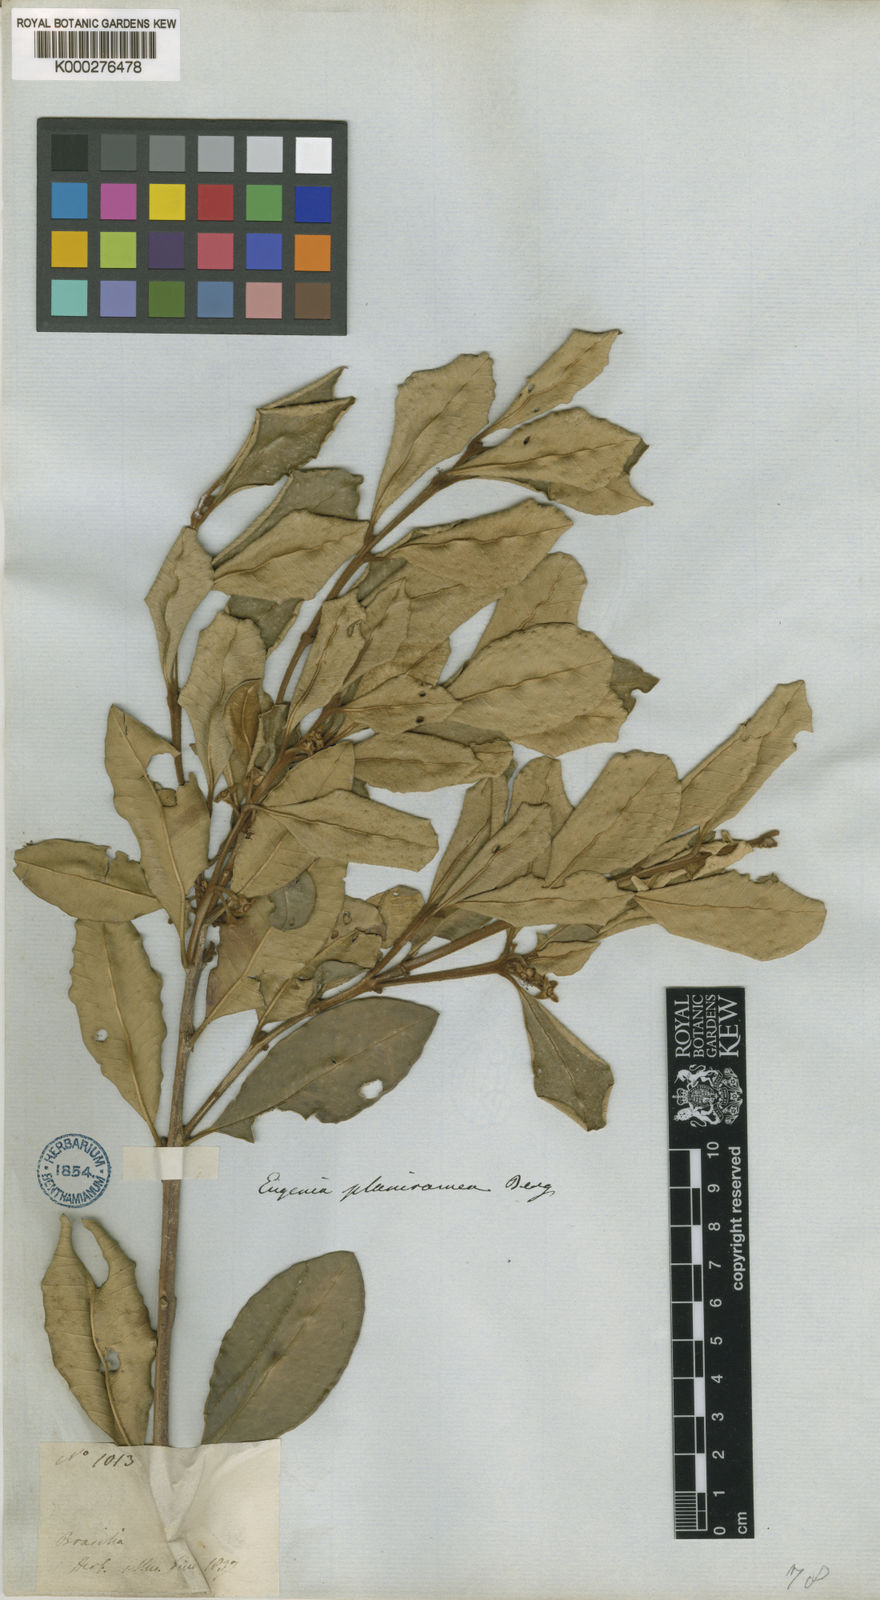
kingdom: Plantae
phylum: Tracheophyta
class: Magnoliopsida
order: Myrtales
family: Myrtaceae
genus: Myrceugenia
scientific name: Myrceugenia rufescens
